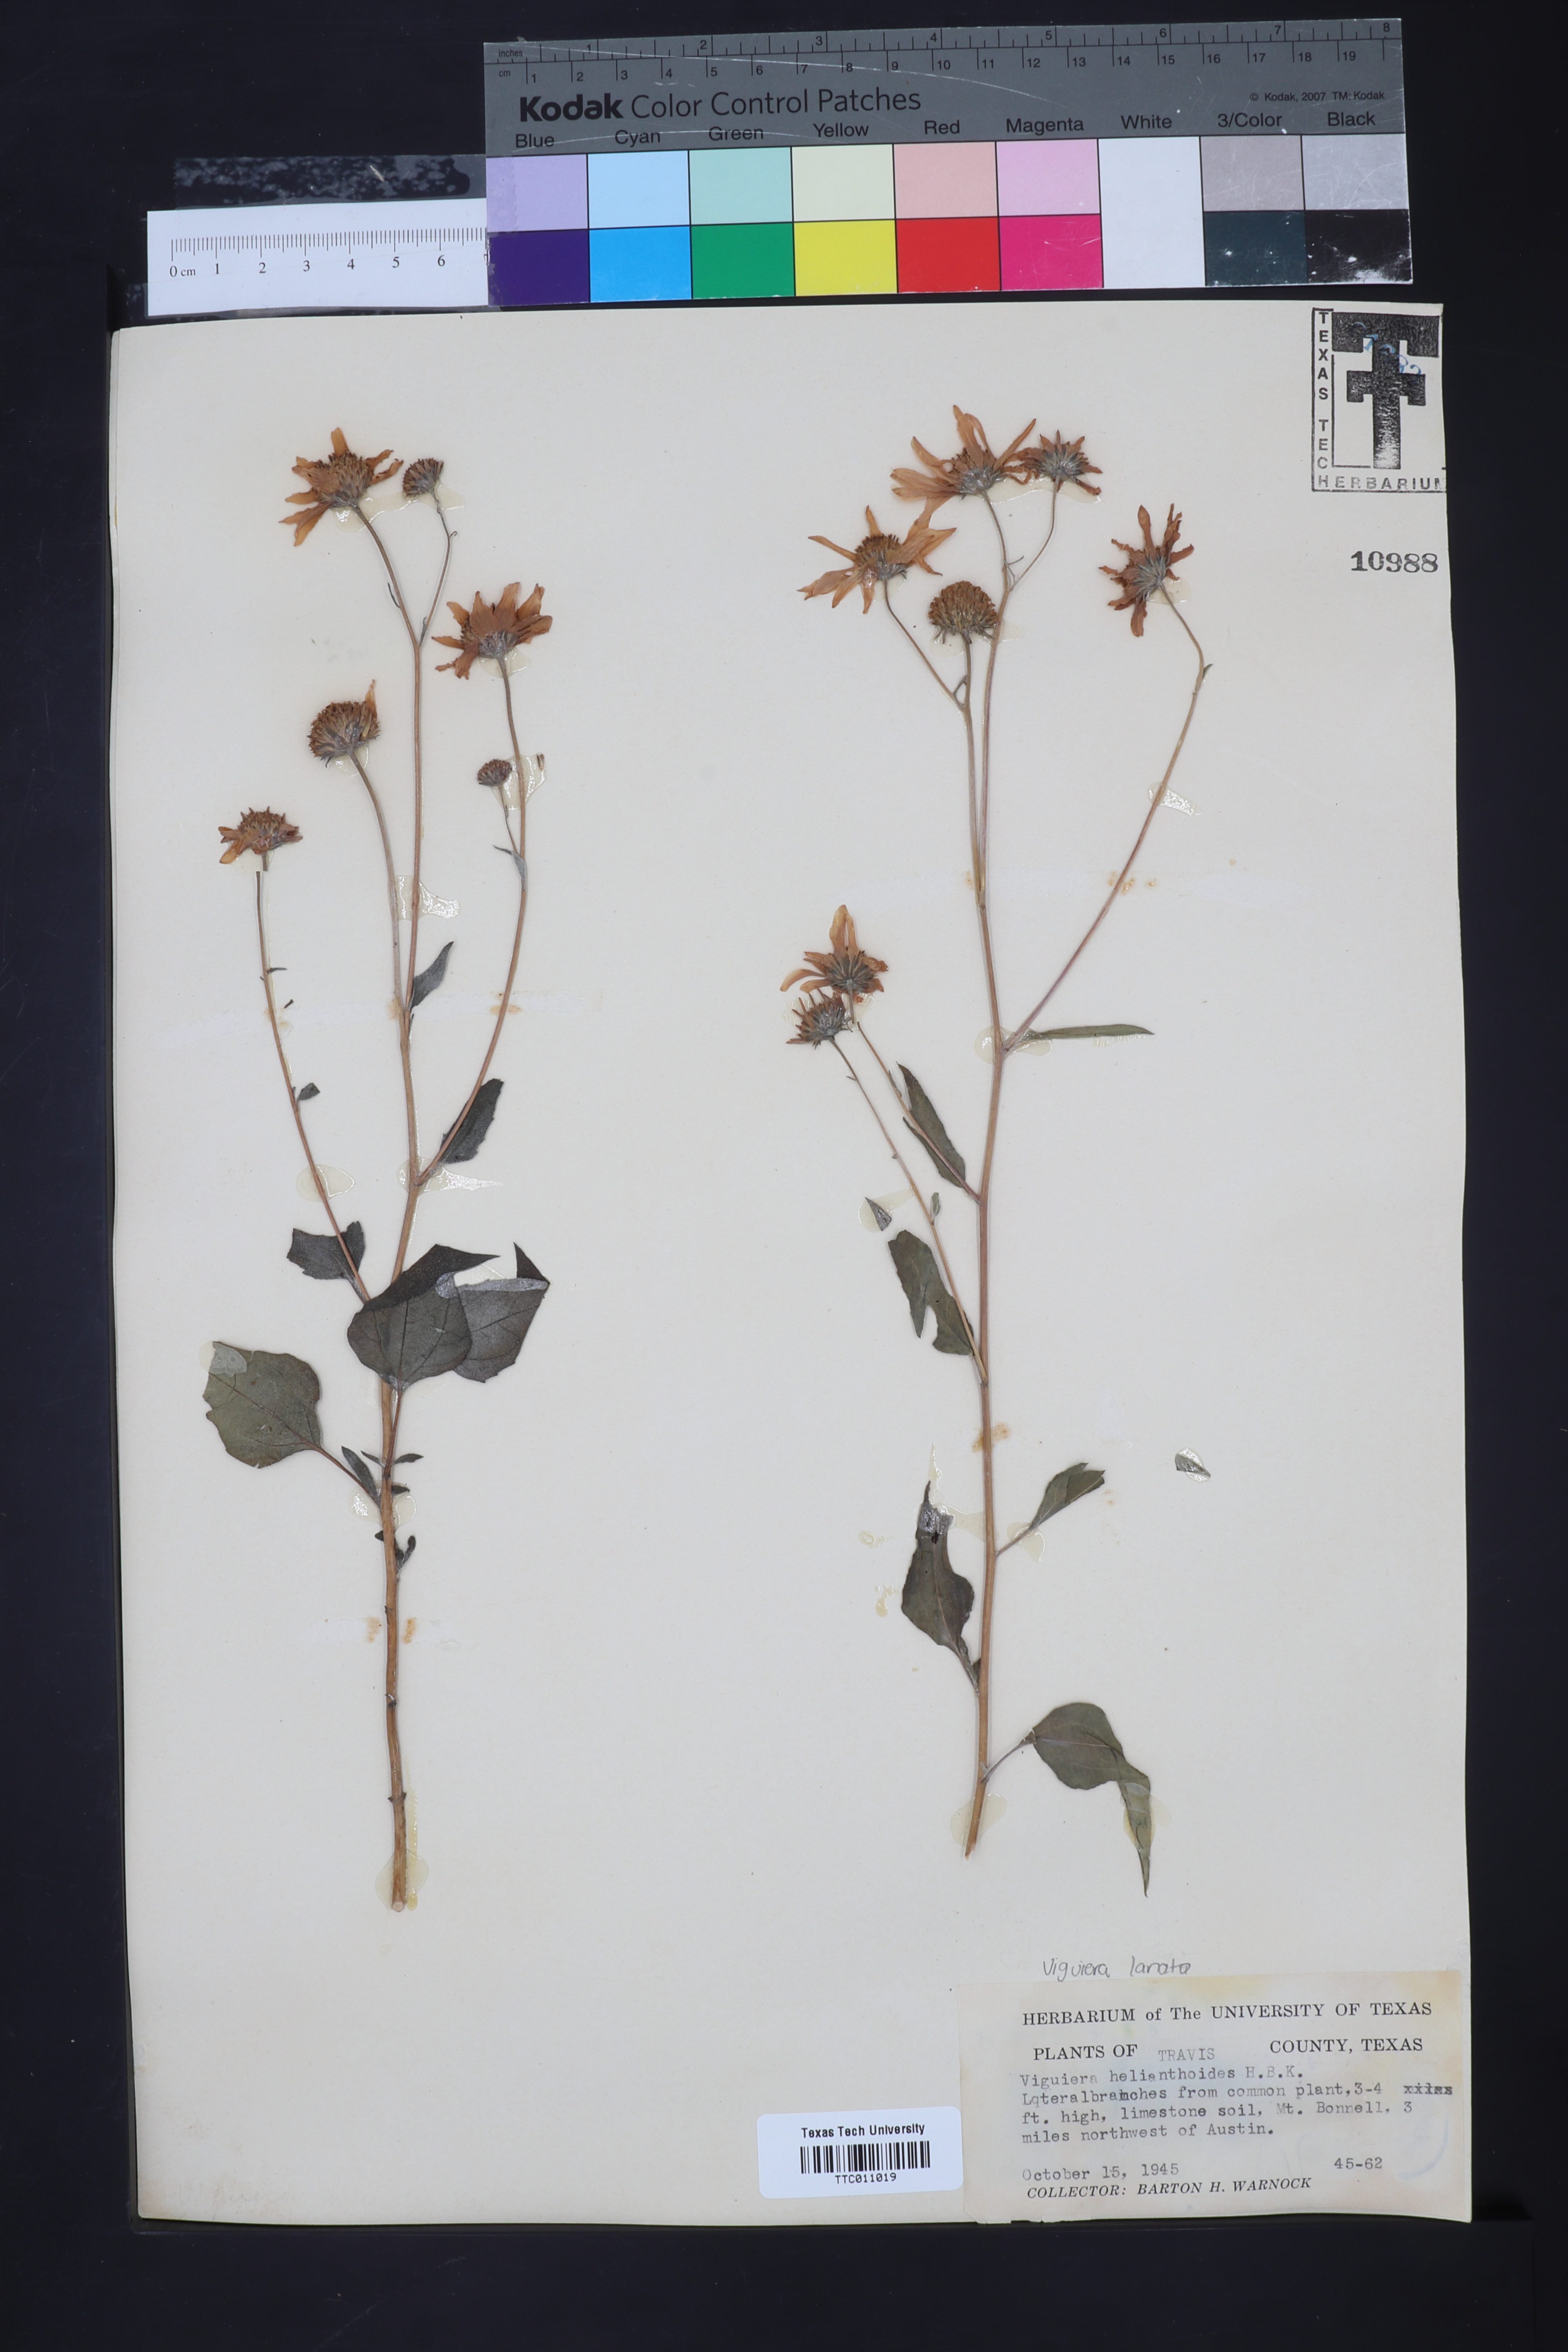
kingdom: Plantae
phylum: Tracheophyta
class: Magnoliopsida
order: Asterales
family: Asteraceae
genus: Viguiera
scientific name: Viguiera dentata
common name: Toothleaf
